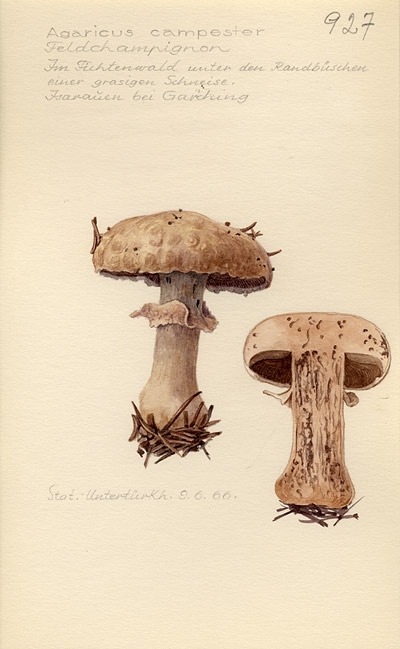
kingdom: Fungi
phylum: Basidiomycota
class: Agaricomycetes
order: Agaricales
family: Agaricaceae
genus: Agaricus
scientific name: Agaricus campestris
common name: Field mushroom
